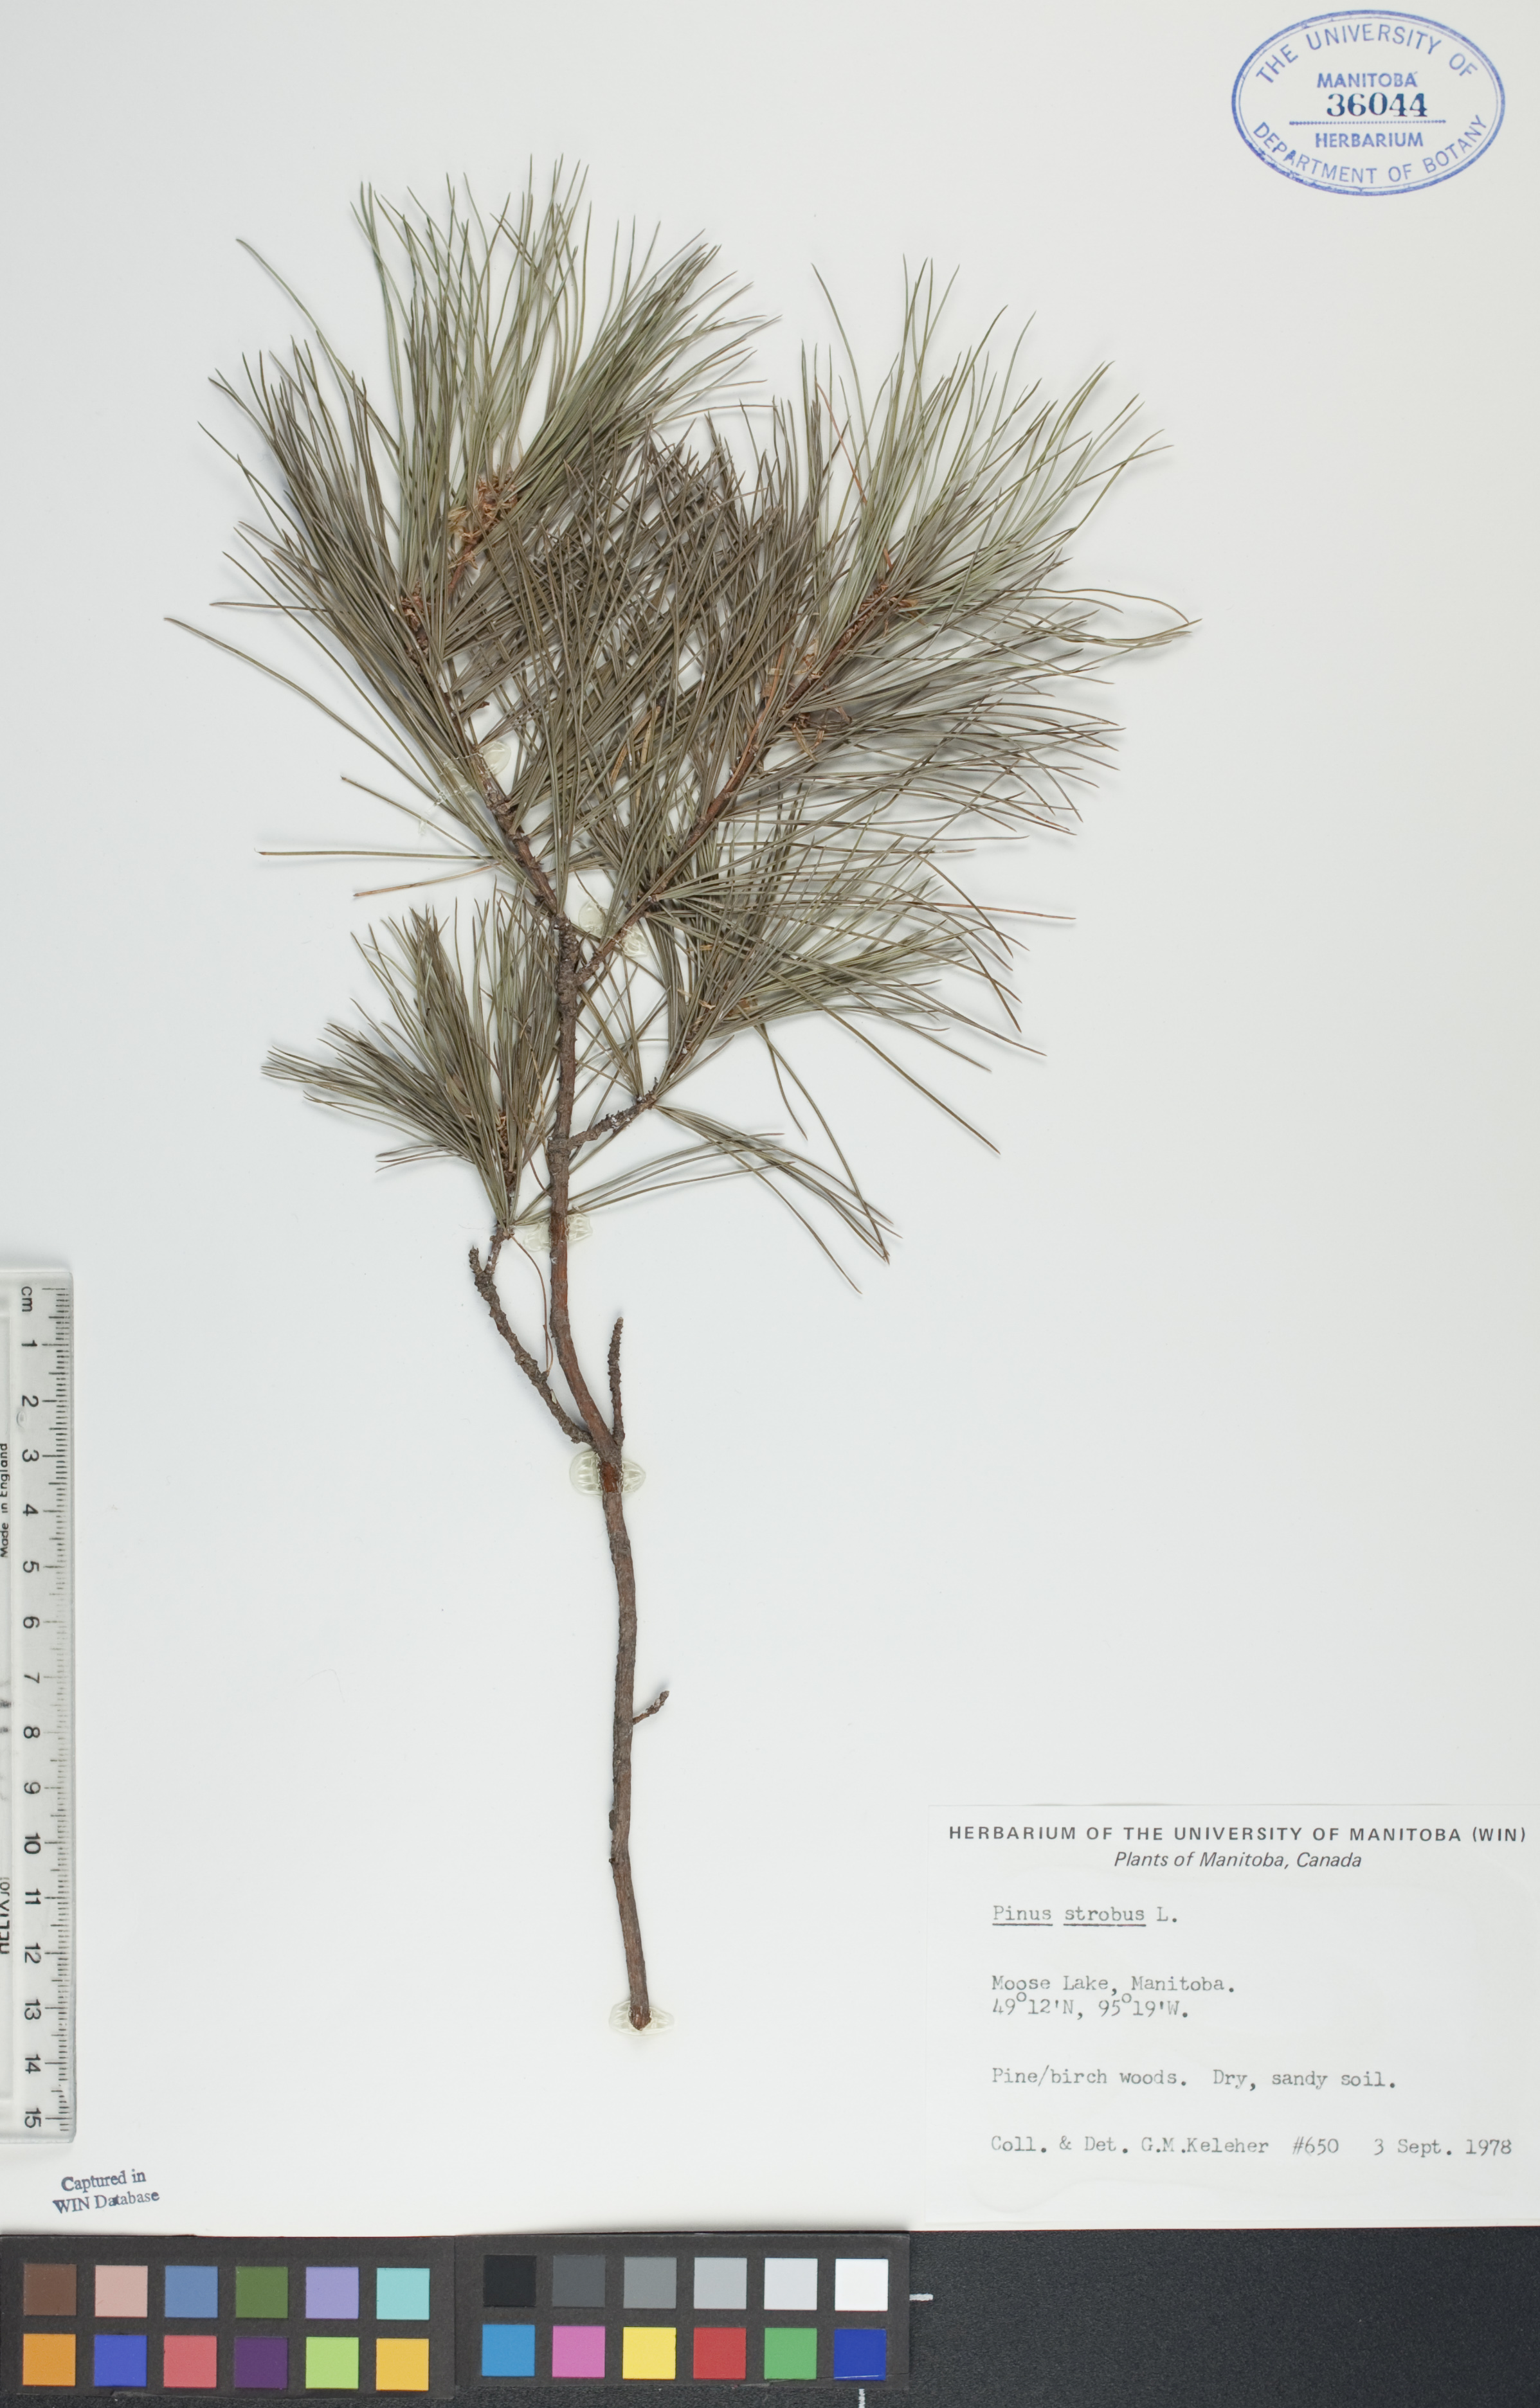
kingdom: Plantae
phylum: Tracheophyta
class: Pinopsida
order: Pinales
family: Pinaceae
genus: Pinus
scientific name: Pinus strobus
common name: Weymouth pine
